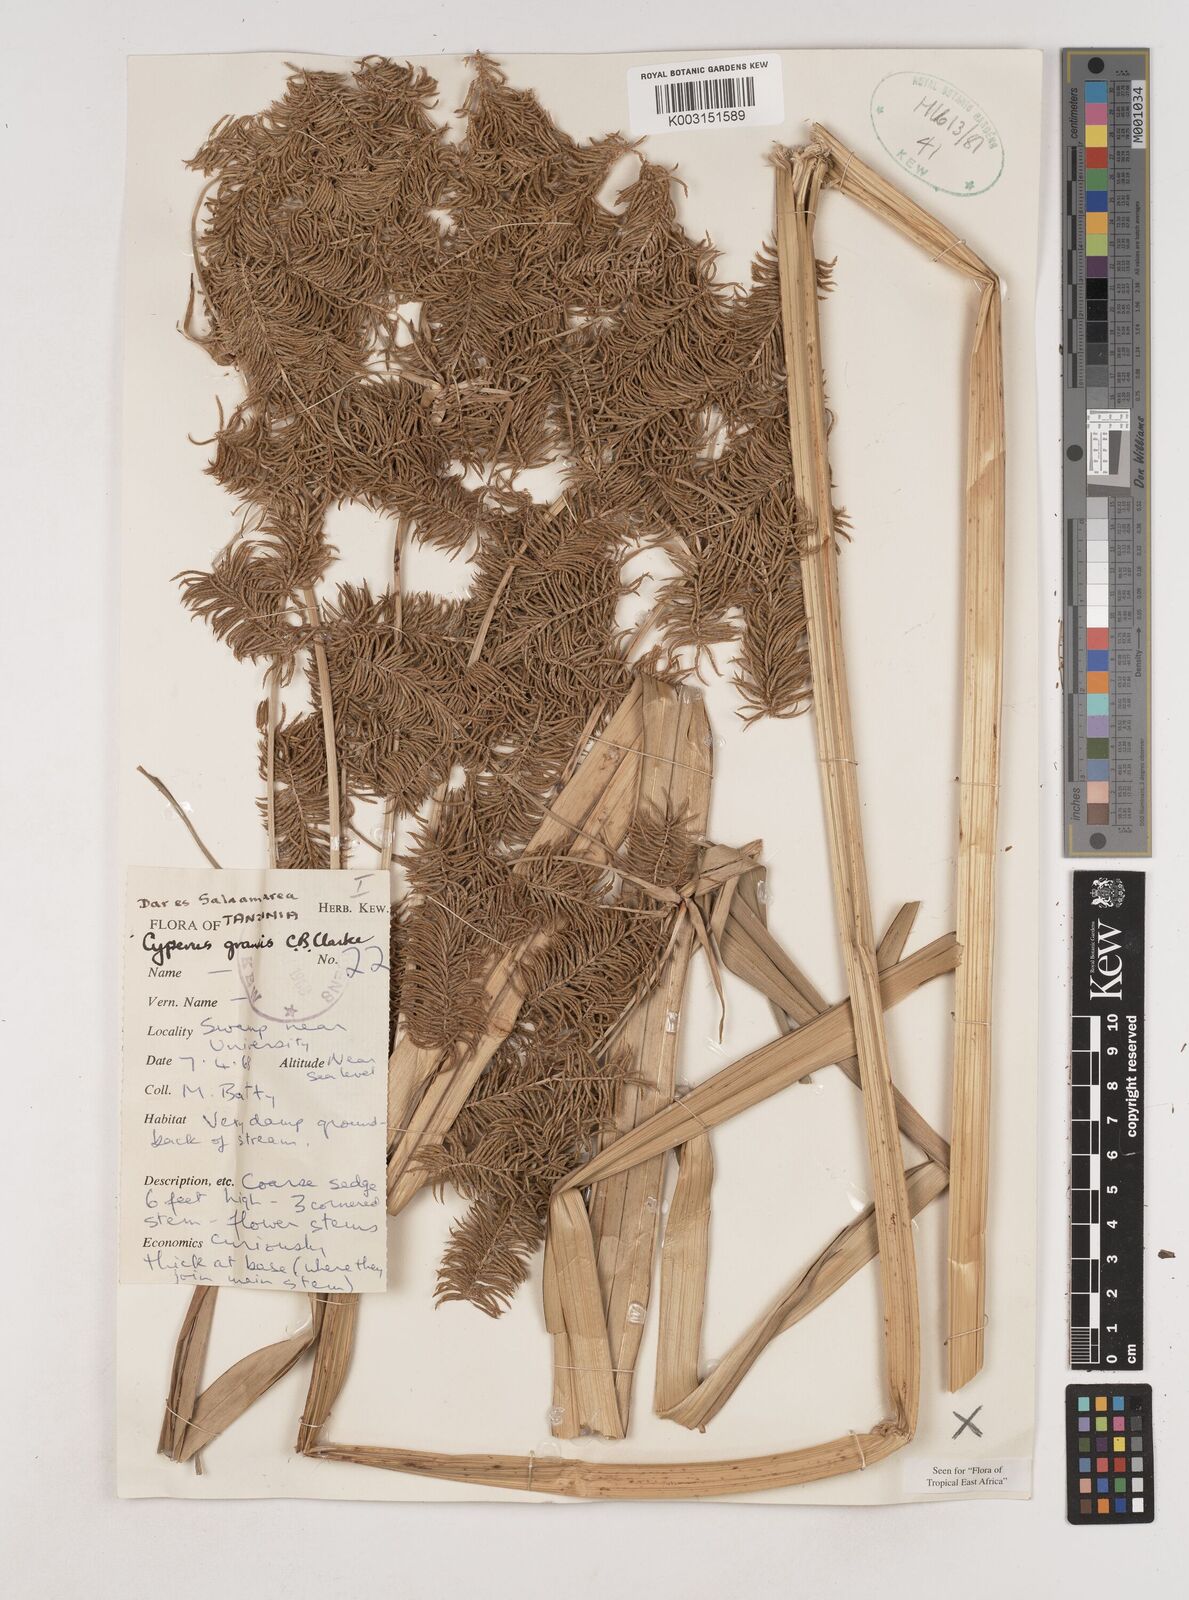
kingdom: Plantae
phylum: Tracheophyta
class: Liliopsida
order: Poales
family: Cyperaceae
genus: Cyperus
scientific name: Cyperus grandis
